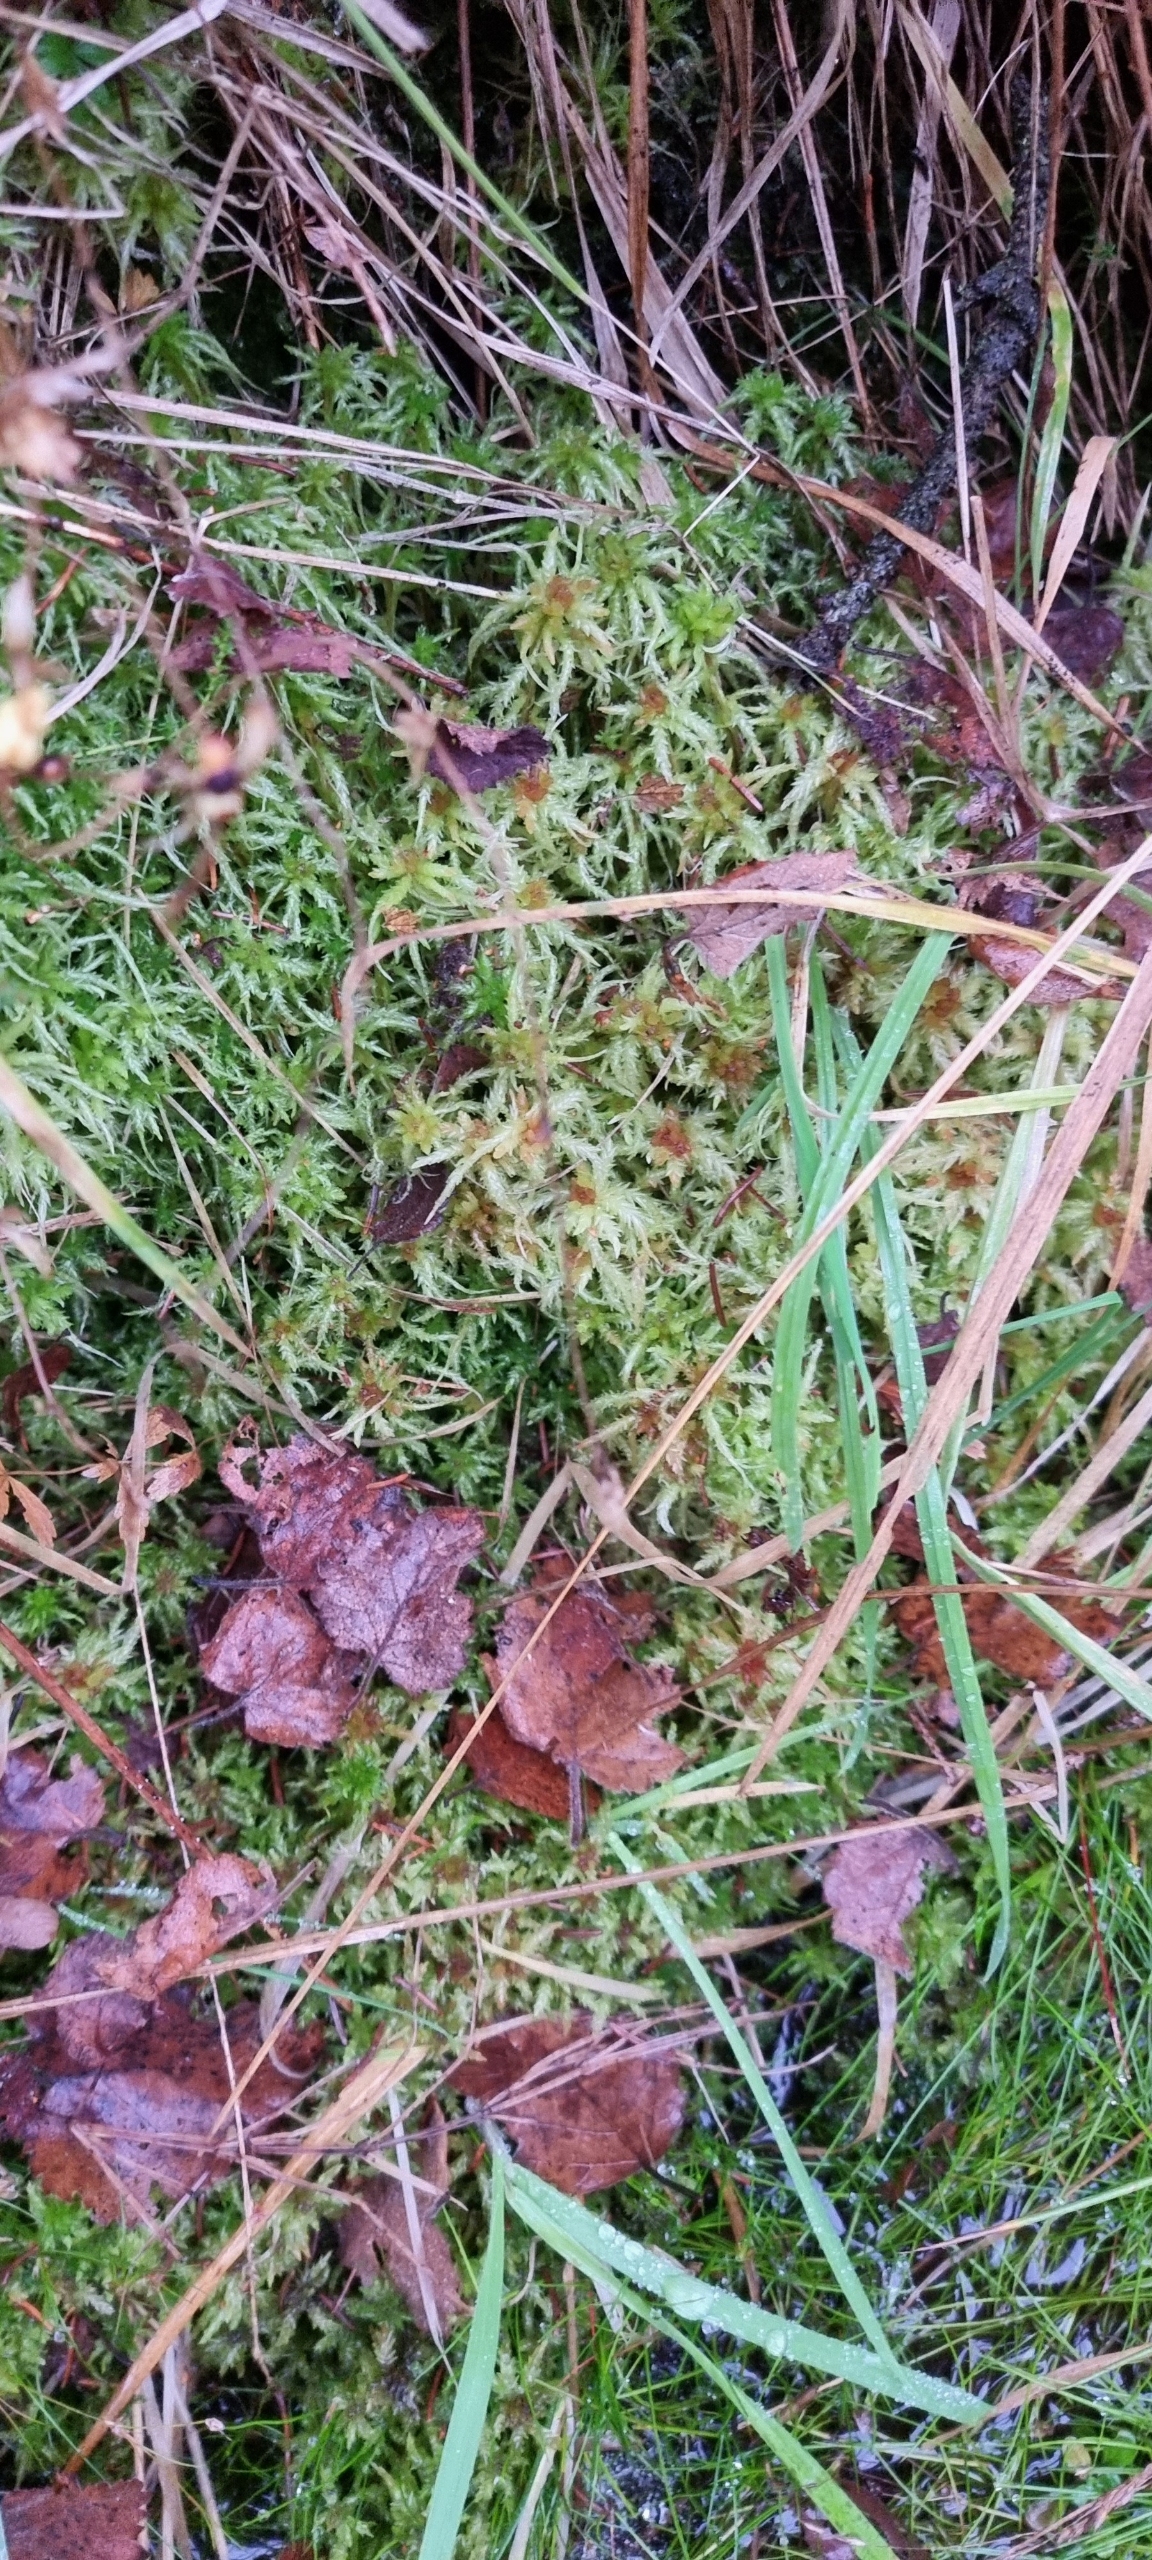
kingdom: Plantae
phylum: Bryophyta
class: Sphagnopsida
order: Sphagnales
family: Sphagnaceae
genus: Sphagnum
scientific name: Sphagnum palustre
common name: Almindelig tørvemos
